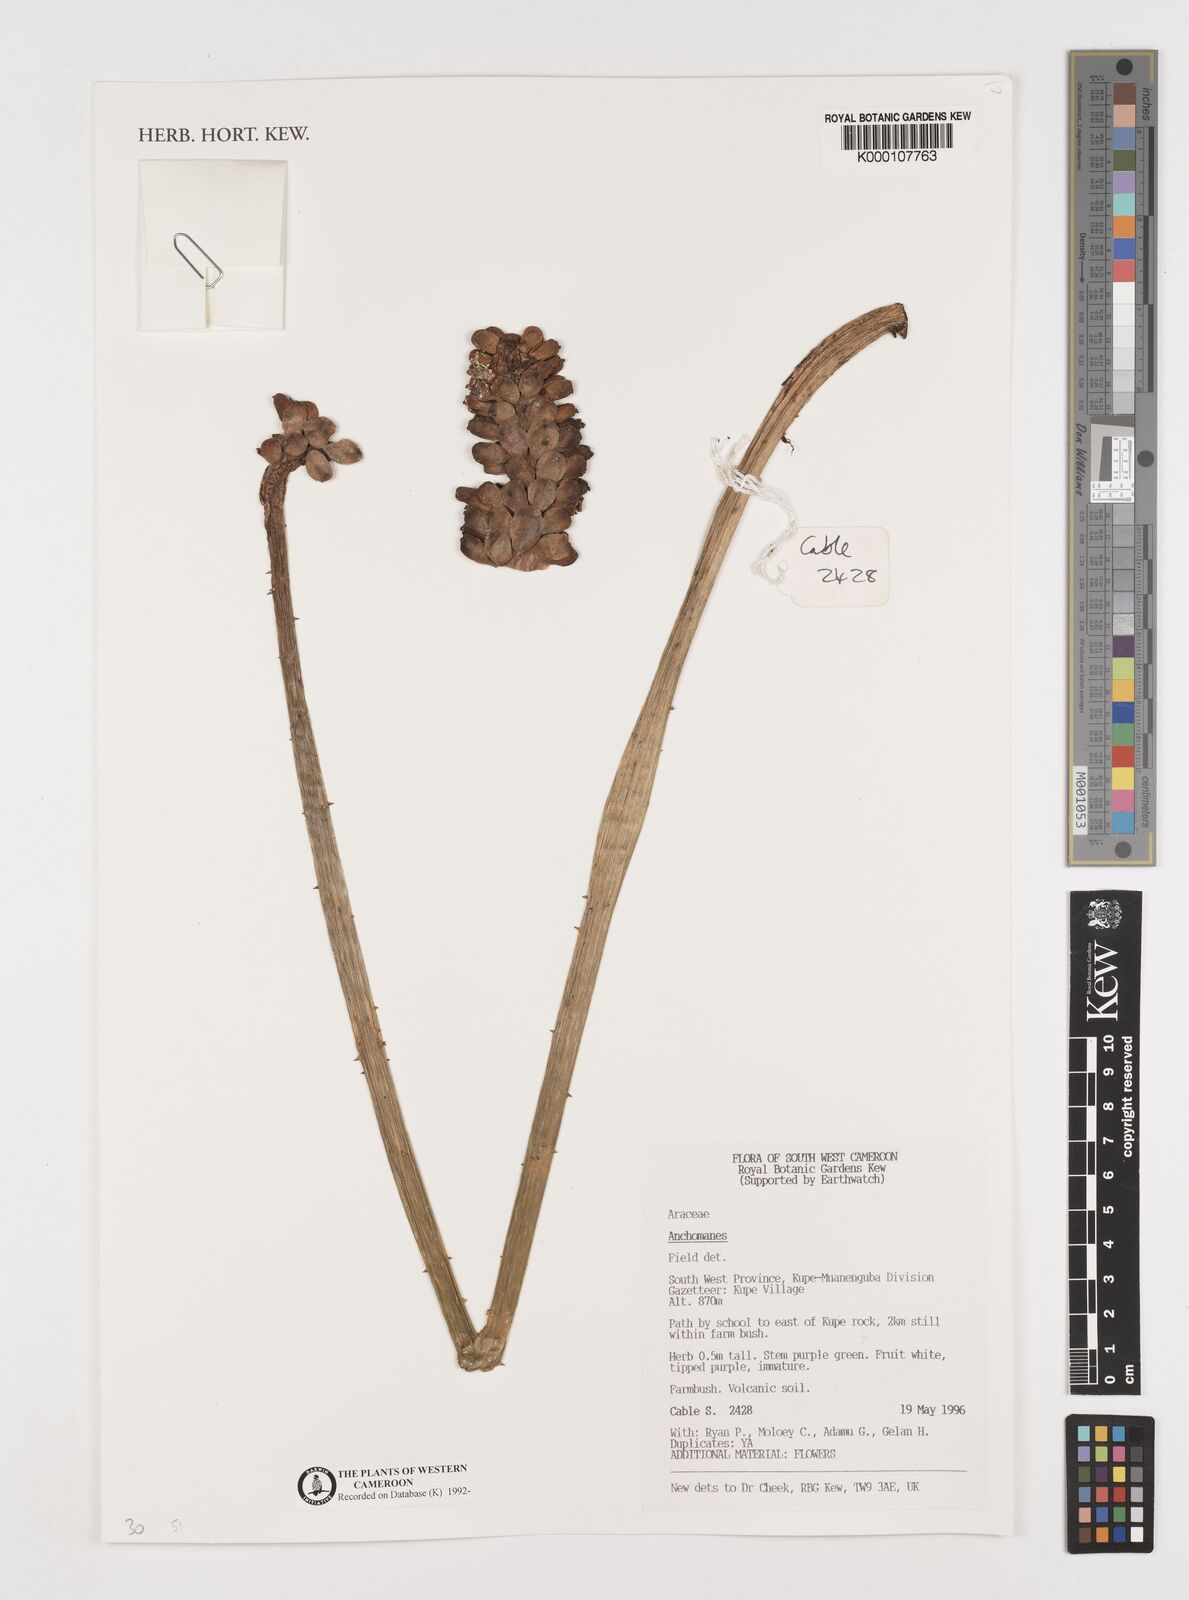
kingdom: Plantae
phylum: Tracheophyta
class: Liliopsida
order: Alismatales
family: Araceae
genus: Anchomanes
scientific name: Anchomanes
